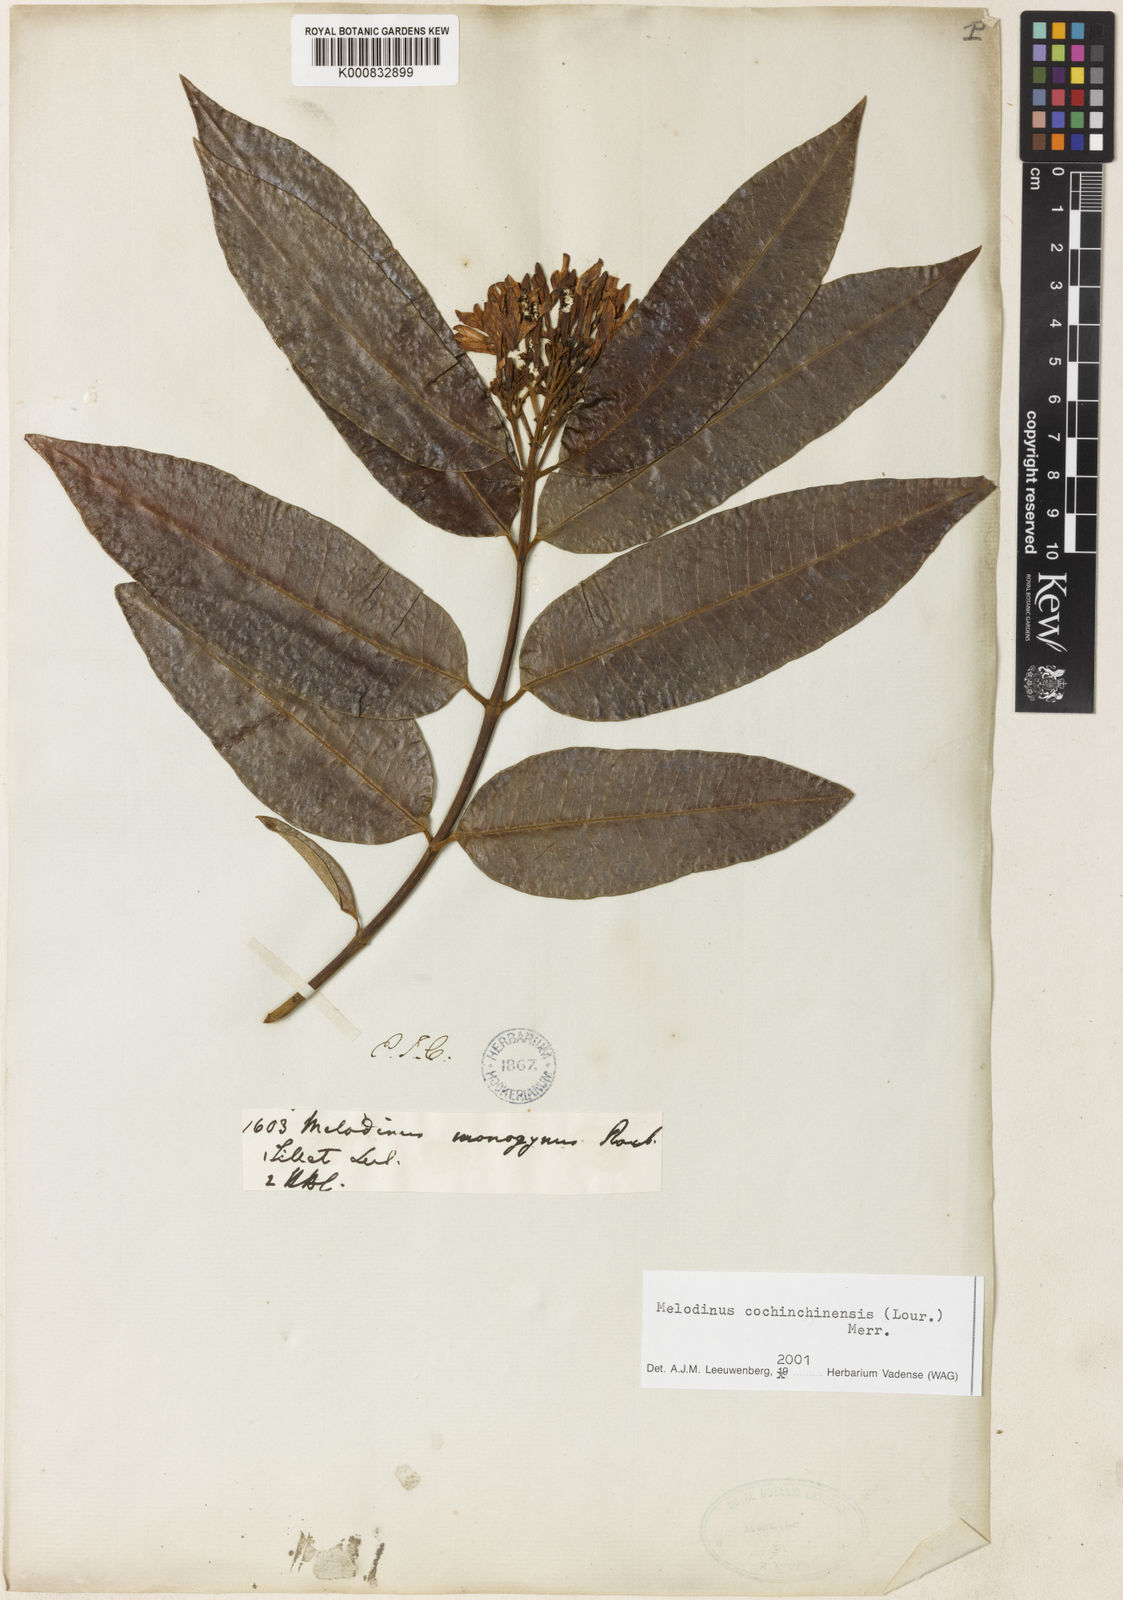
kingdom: Plantae
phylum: Tracheophyta
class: Magnoliopsida
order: Gentianales
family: Apocynaceae
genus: Melodinus
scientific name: Melodinus cochinchinensis
